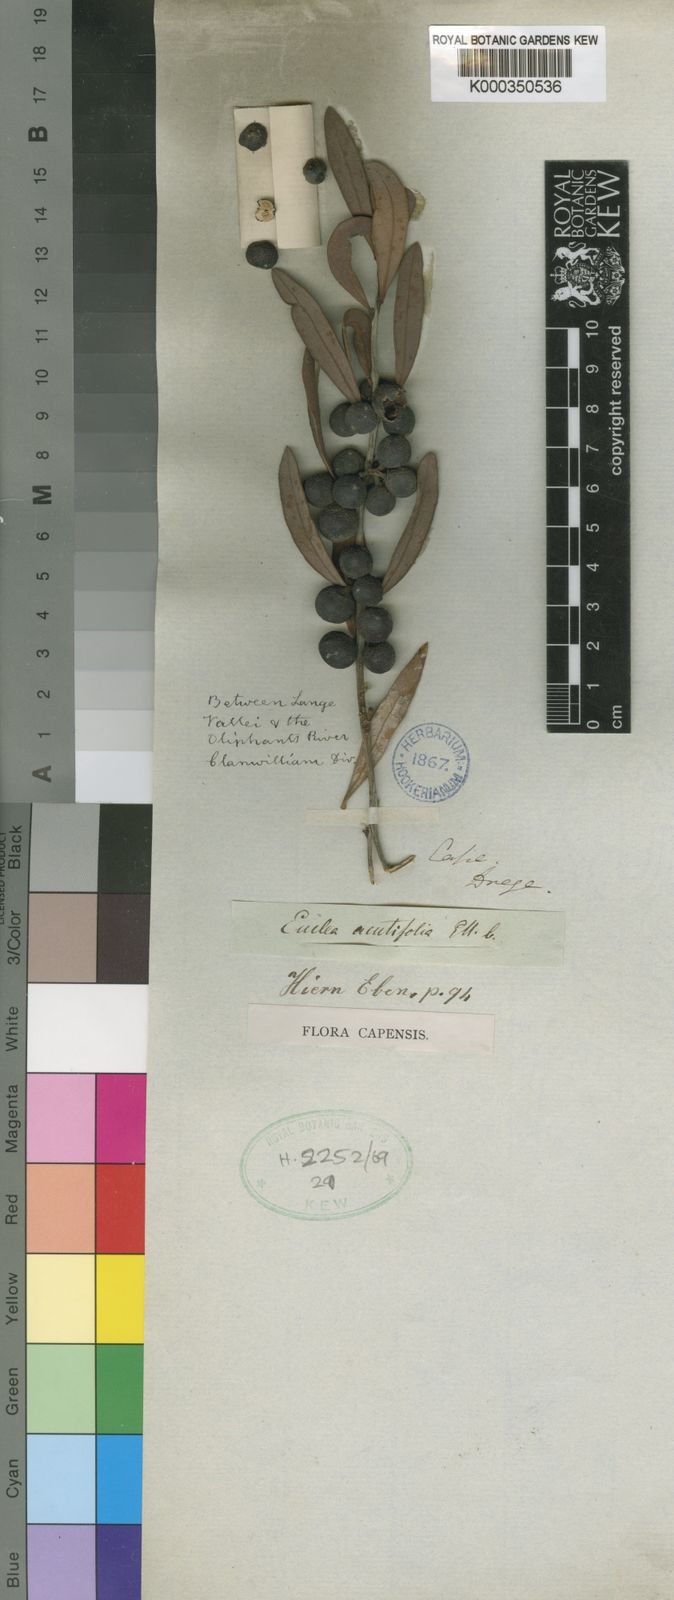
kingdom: Plantae
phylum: Tracheophyta
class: Magnoliopsida
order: Ericales
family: Ebenaceae
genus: Euclea
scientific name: Euclea
